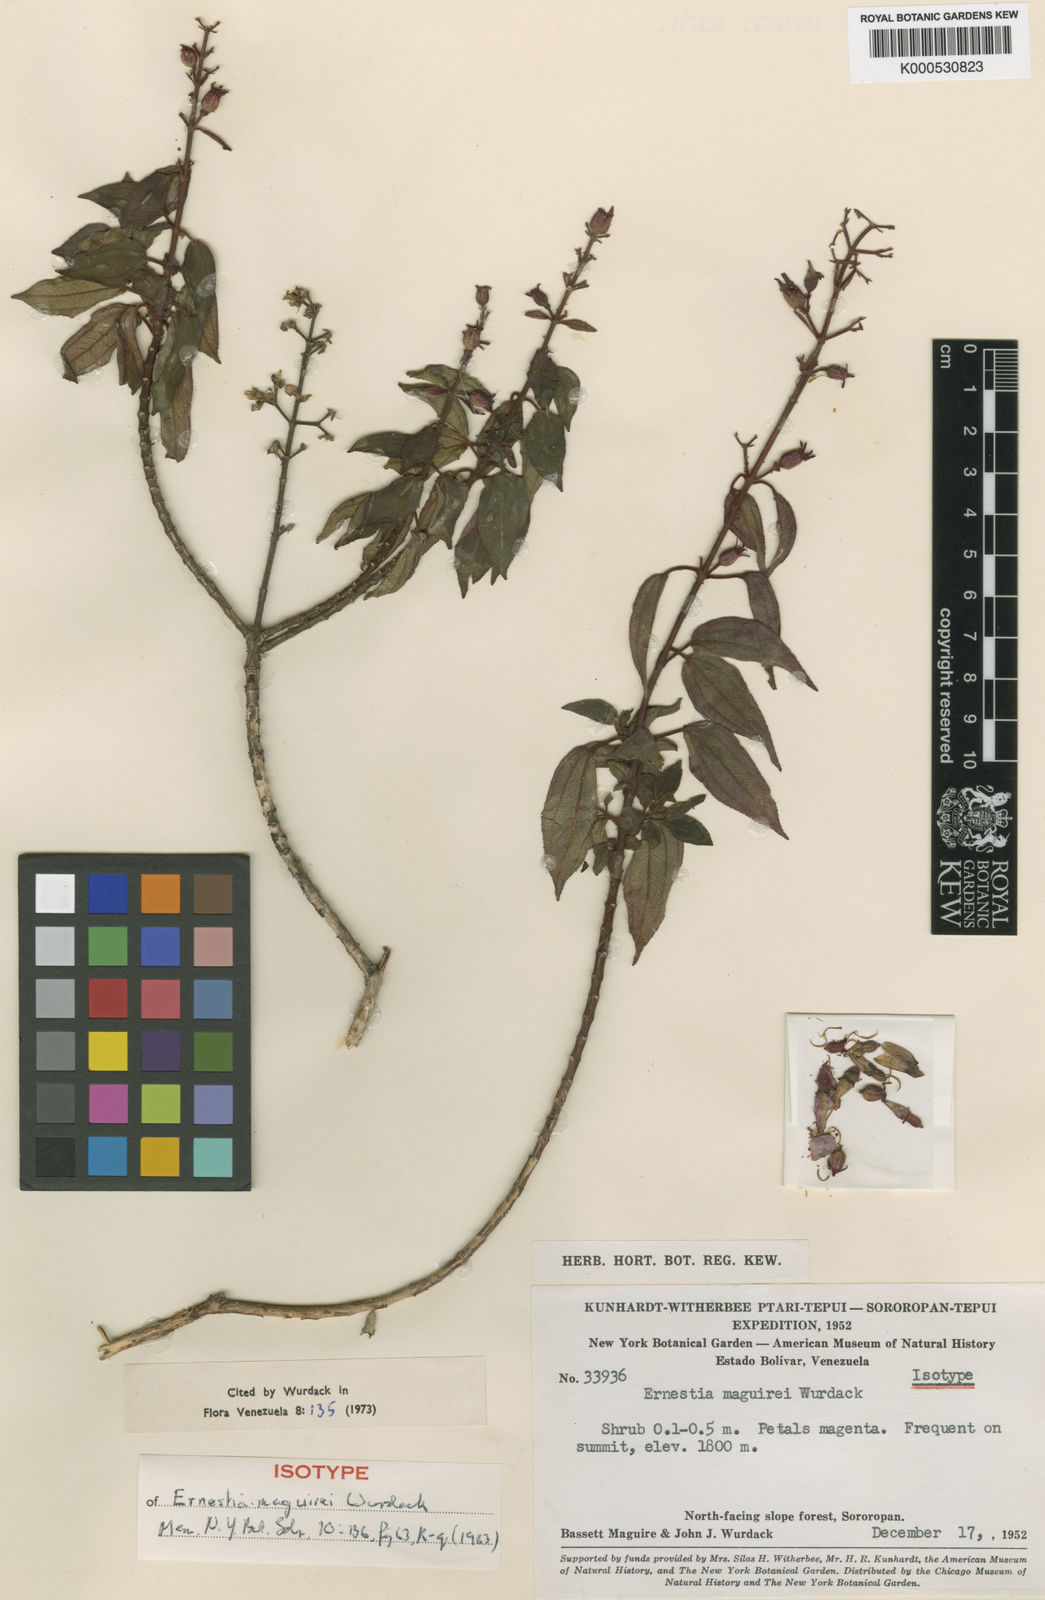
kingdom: Plantae
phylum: Tracheophyta
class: Magnoliopsida
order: Myrtales
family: Melastomataceae
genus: Ernestia
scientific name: Ernestia maguirei
